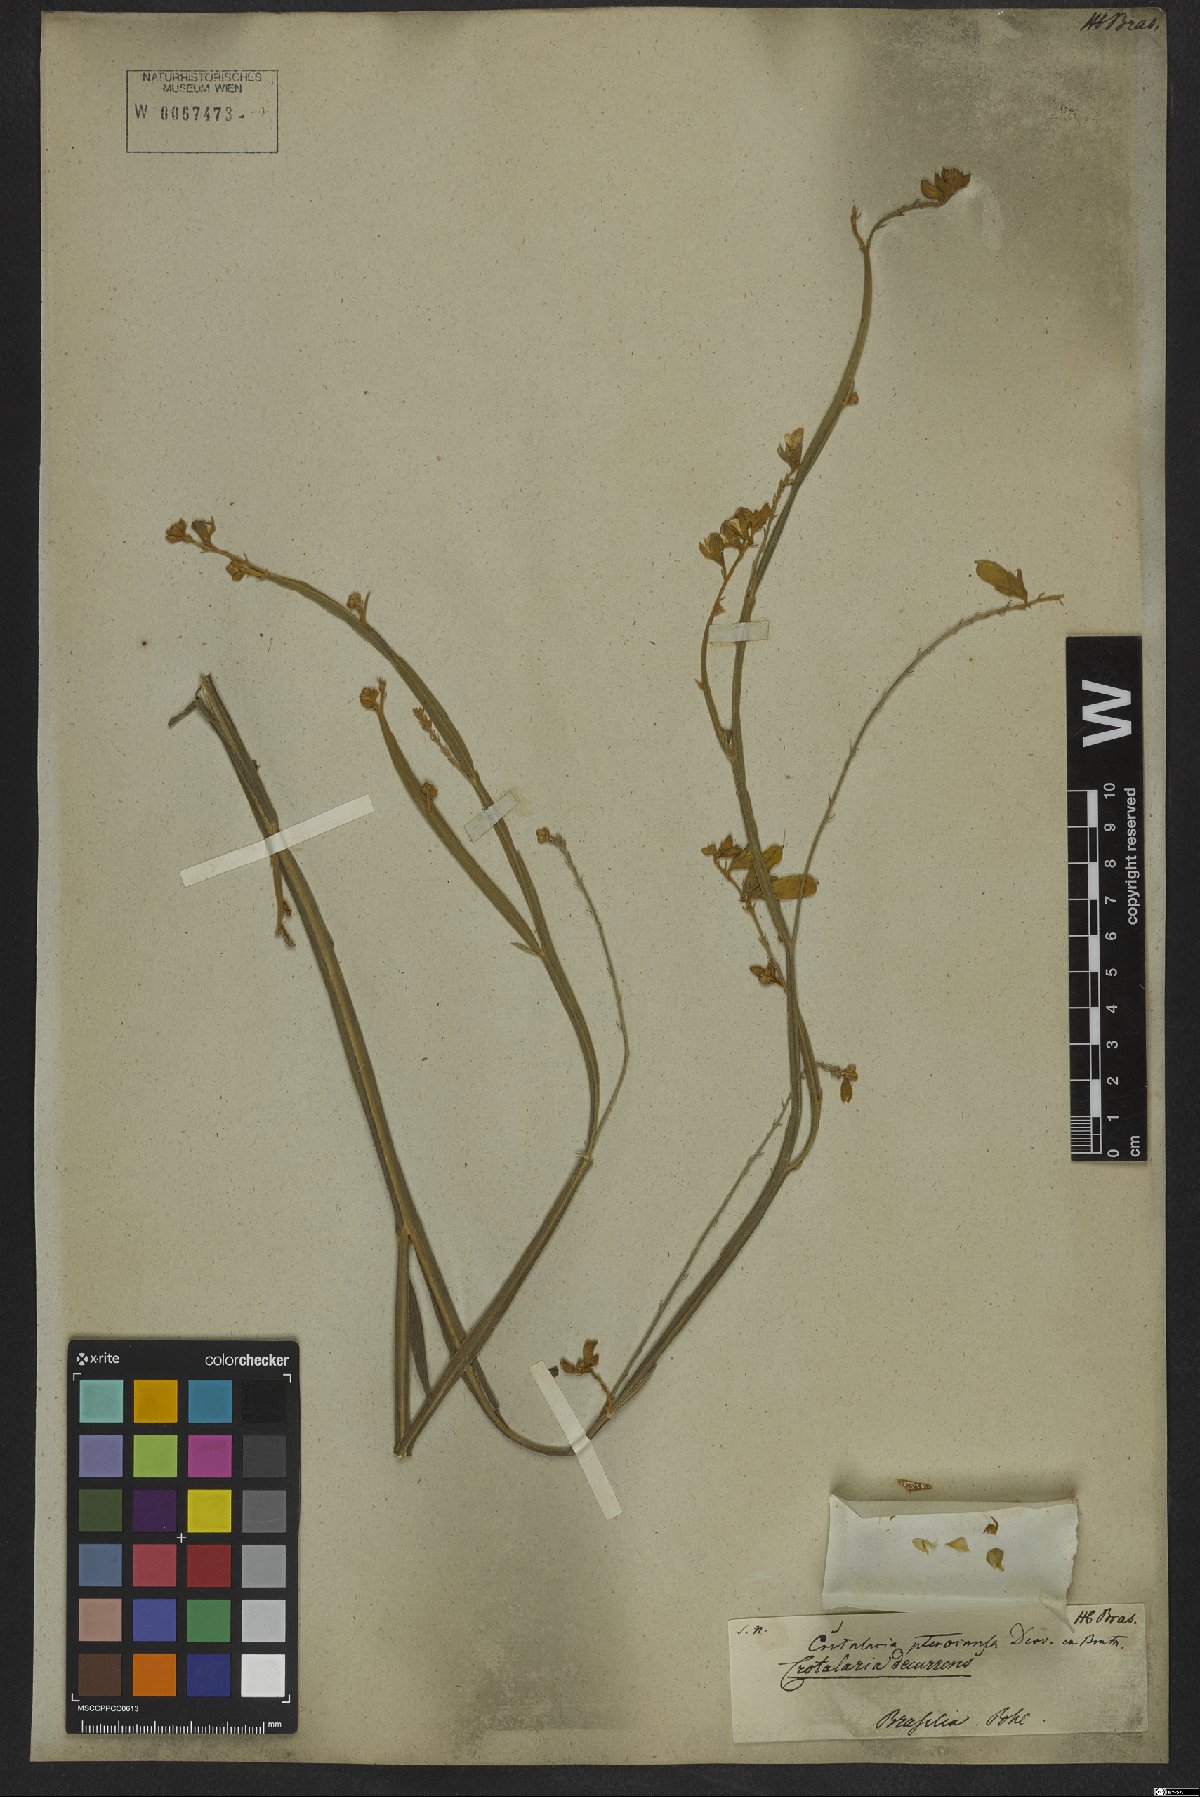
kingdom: Plantae
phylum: Tracheophyta
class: Magnoliopsida
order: Fabales
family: Fabaceae
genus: Crotalaria
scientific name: Crotalaria pilosa
